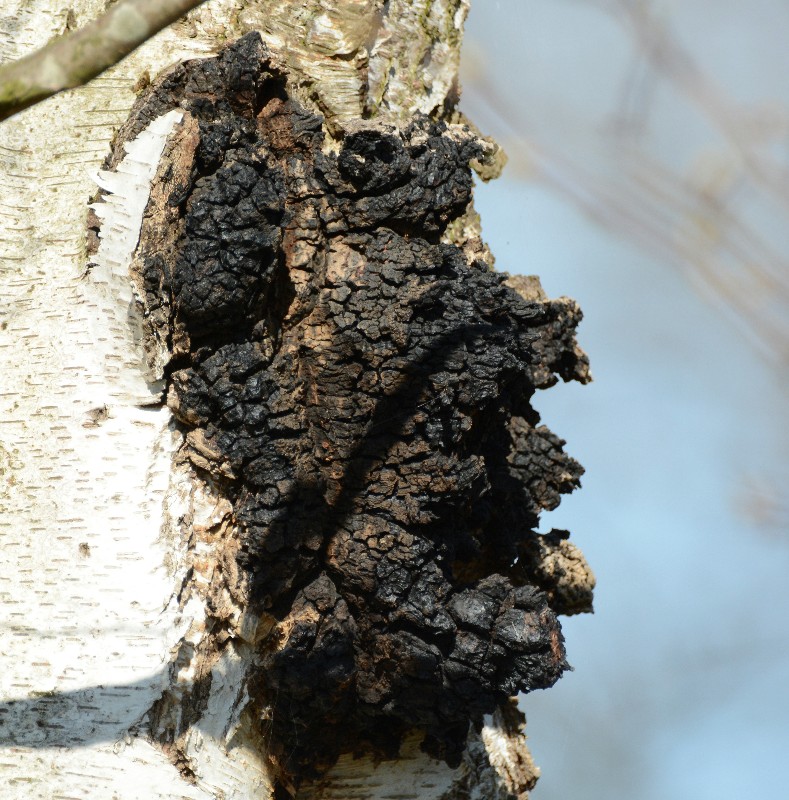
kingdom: Fungi
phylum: Basidiomycota
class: Agaricomycetes
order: Hymenochaetales
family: Hymenochaetaceae
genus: Inonotus
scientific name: Inonotus obliquus
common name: birke-spejlporesvamp
